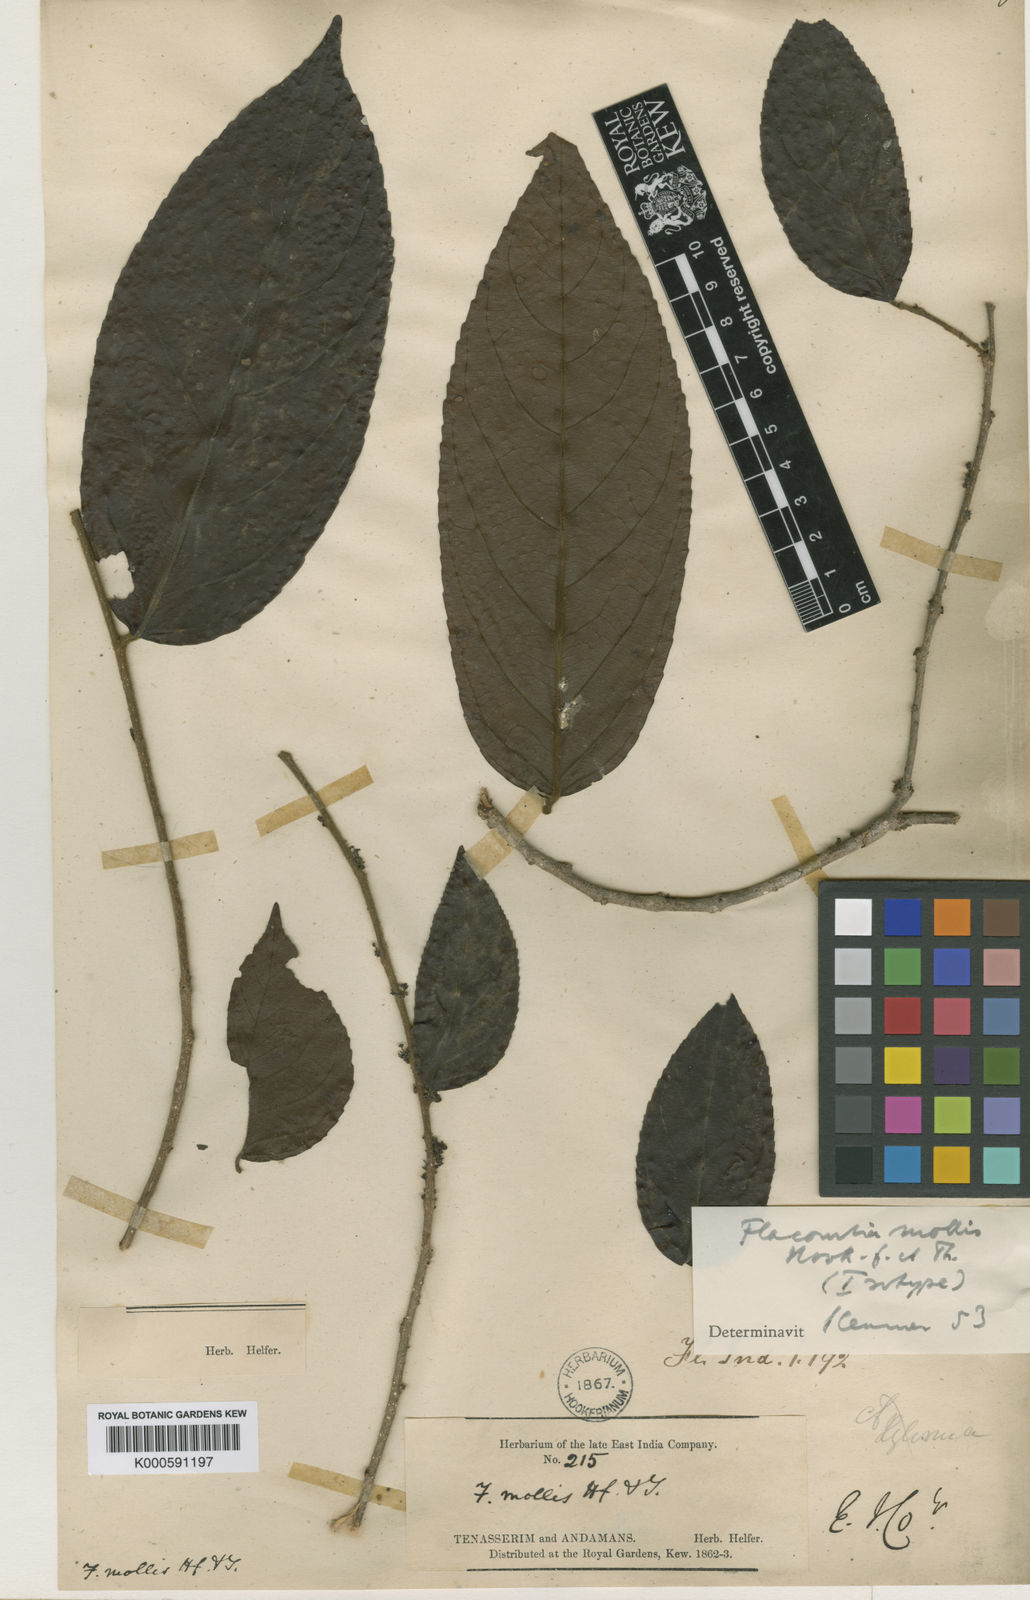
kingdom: Plantae
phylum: Tracheophyta
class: Magnoliopsida
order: Malpighiales
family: Salicaceae
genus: Flacourtia
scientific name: Flacourtia mollis
